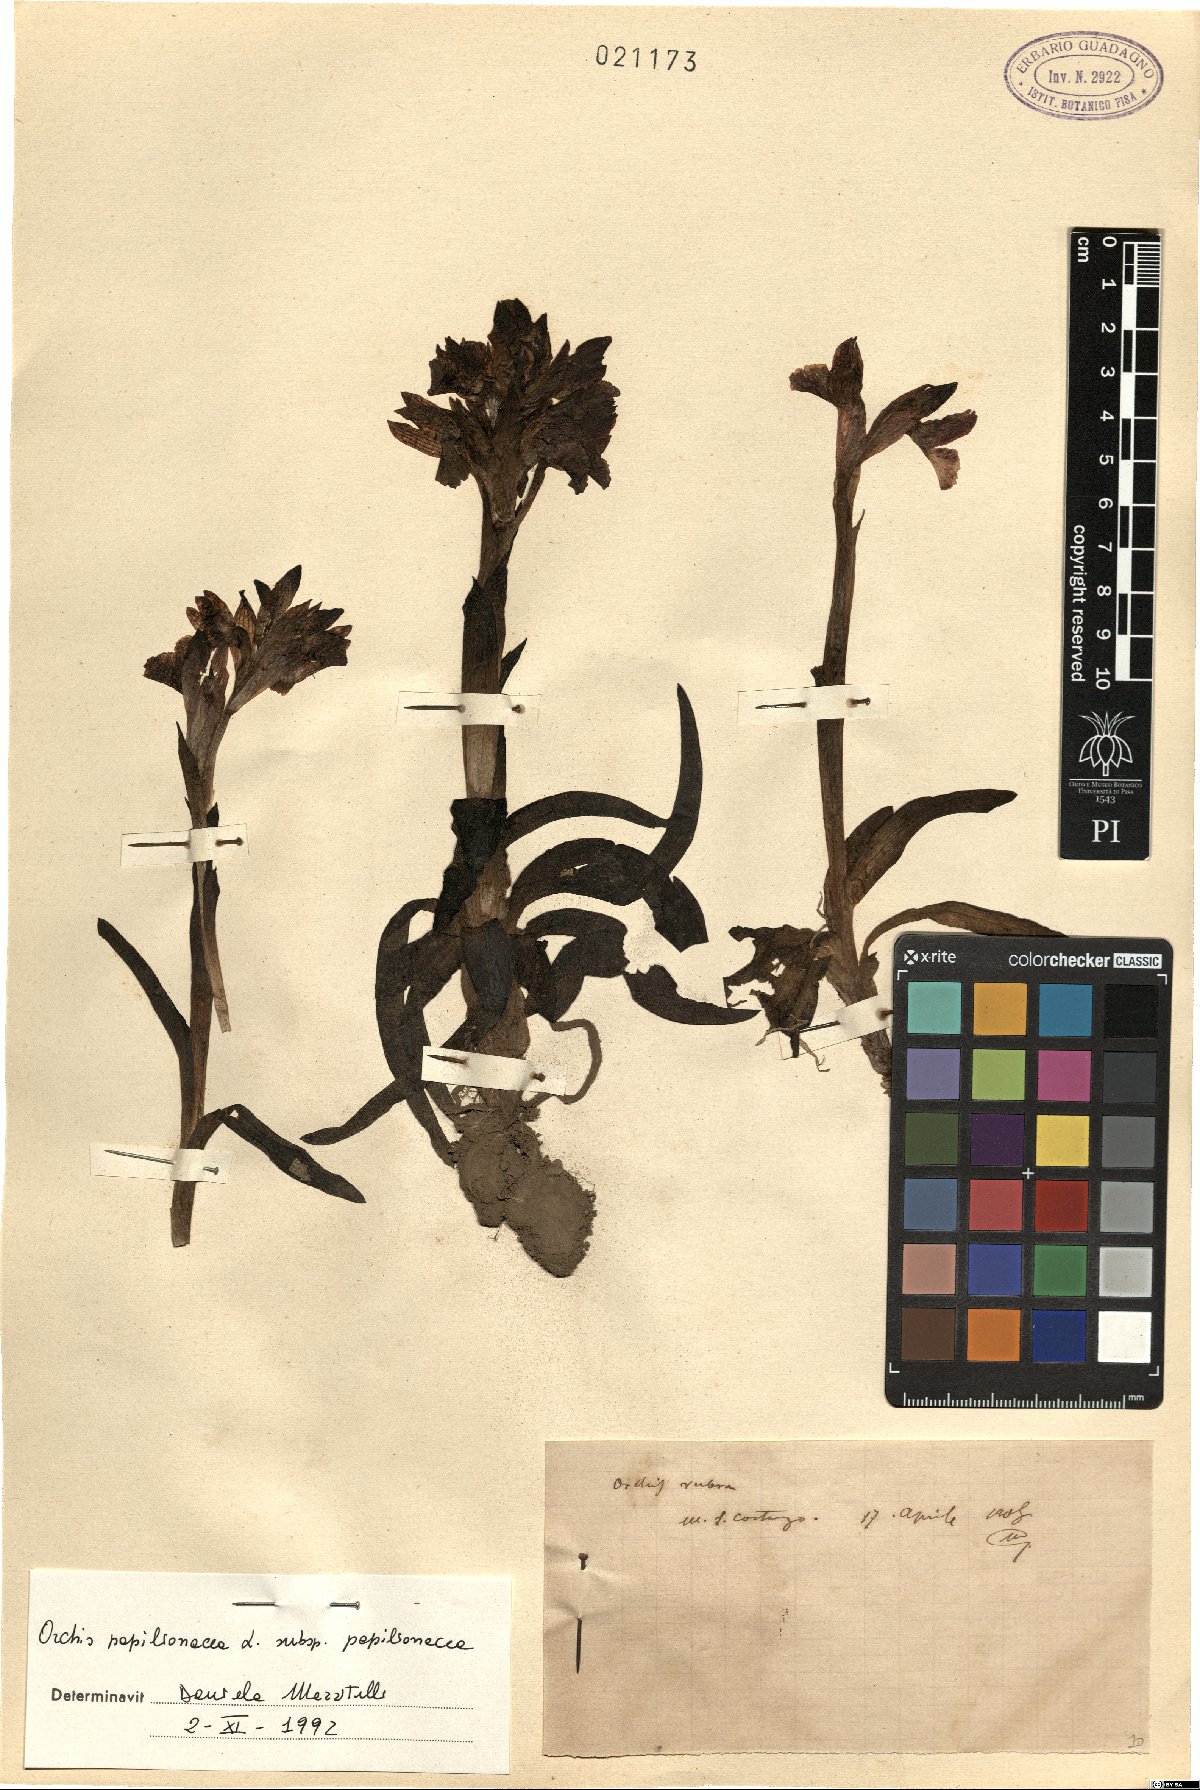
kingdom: Plantae
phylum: Tracheophyta
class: Liliopsida
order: Asparagales
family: Orchidaceae
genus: Anacamptis
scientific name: Anacamptis papilionacea
